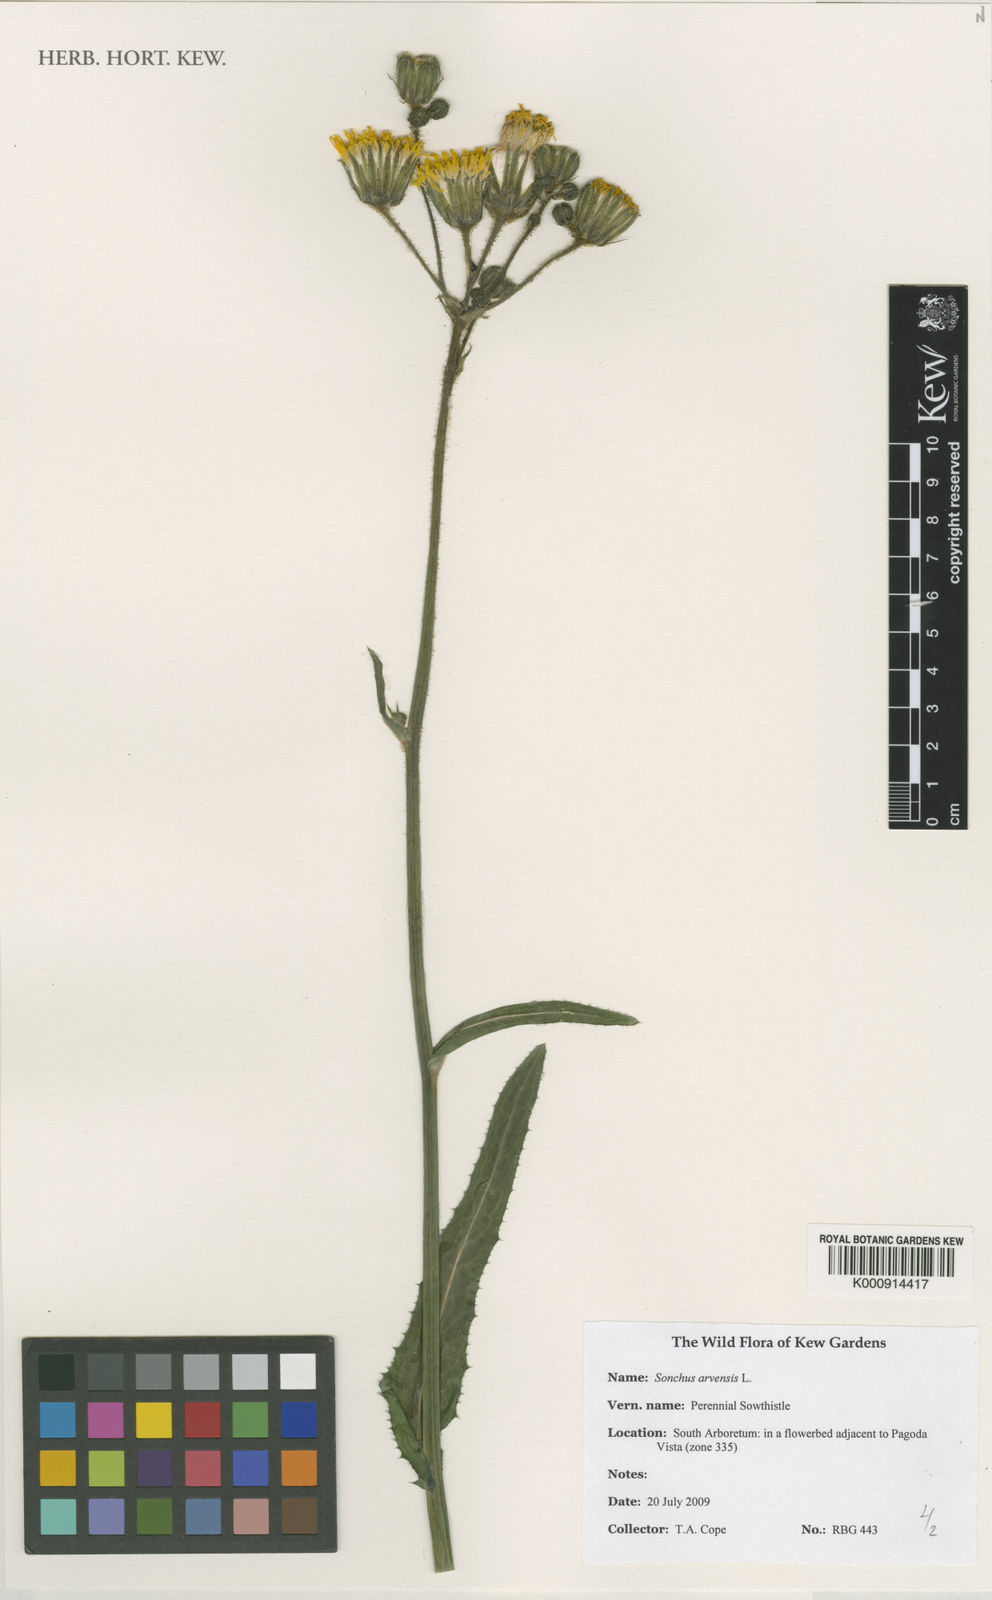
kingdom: Plantae
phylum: Tracheophyta
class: Magnoliopsida
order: Asterales
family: Asteraceae
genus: Sonchus
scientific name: Sonchus arvensis
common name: Perennial sow-thistle
